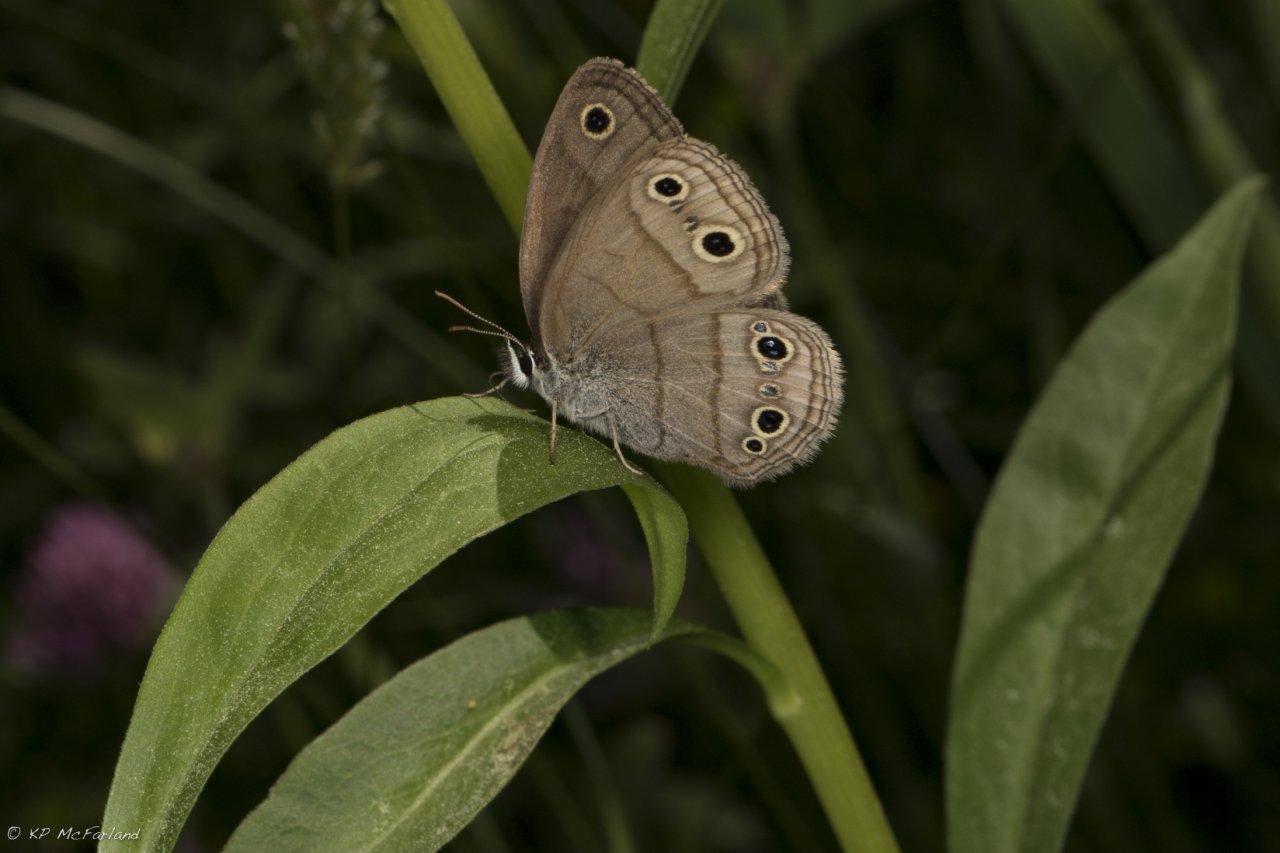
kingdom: Animalia
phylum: Arthropoda
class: Insecta
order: Lepidoptera
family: Nymphalidae
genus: Euptychia
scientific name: Euptychia cymela
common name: Little Wood Satyr
